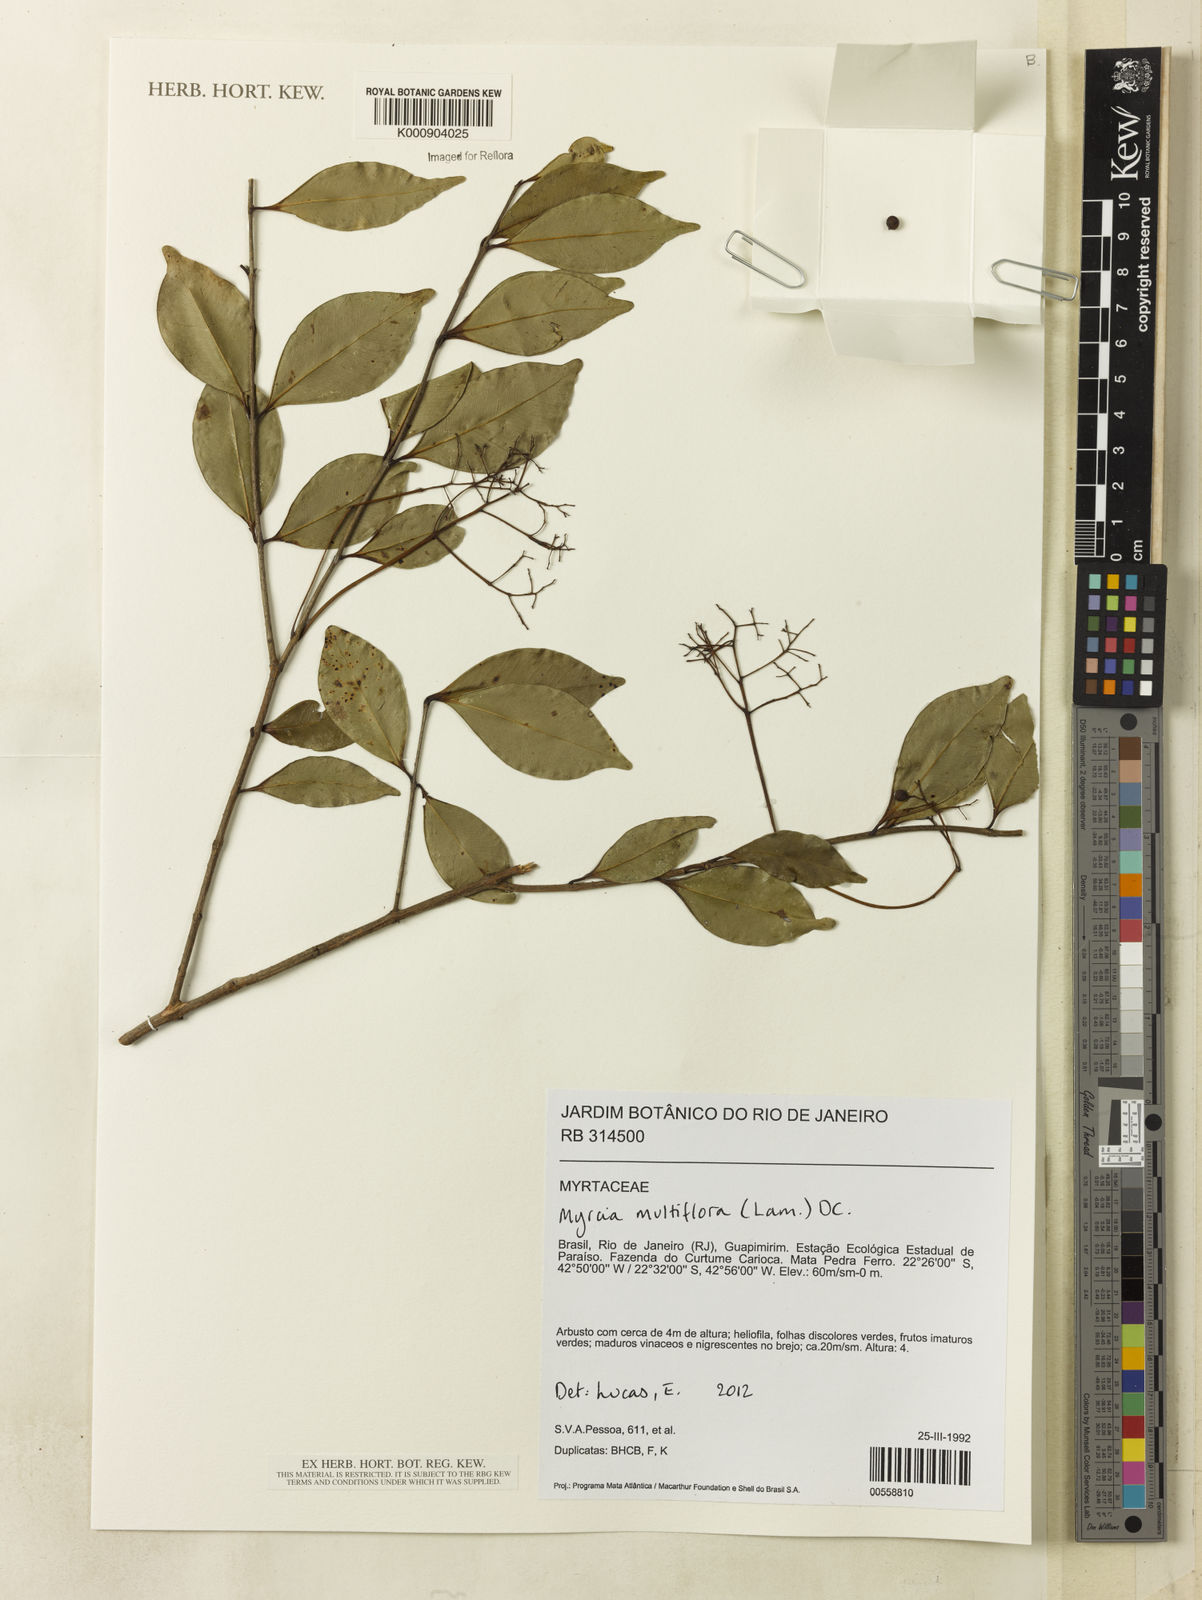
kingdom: Plantae
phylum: Tracheophyta
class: Magnoliopsida
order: Myrtales
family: Myrtaceae
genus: Myrcia
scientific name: Myrcia multiflora
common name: Pedra hume
